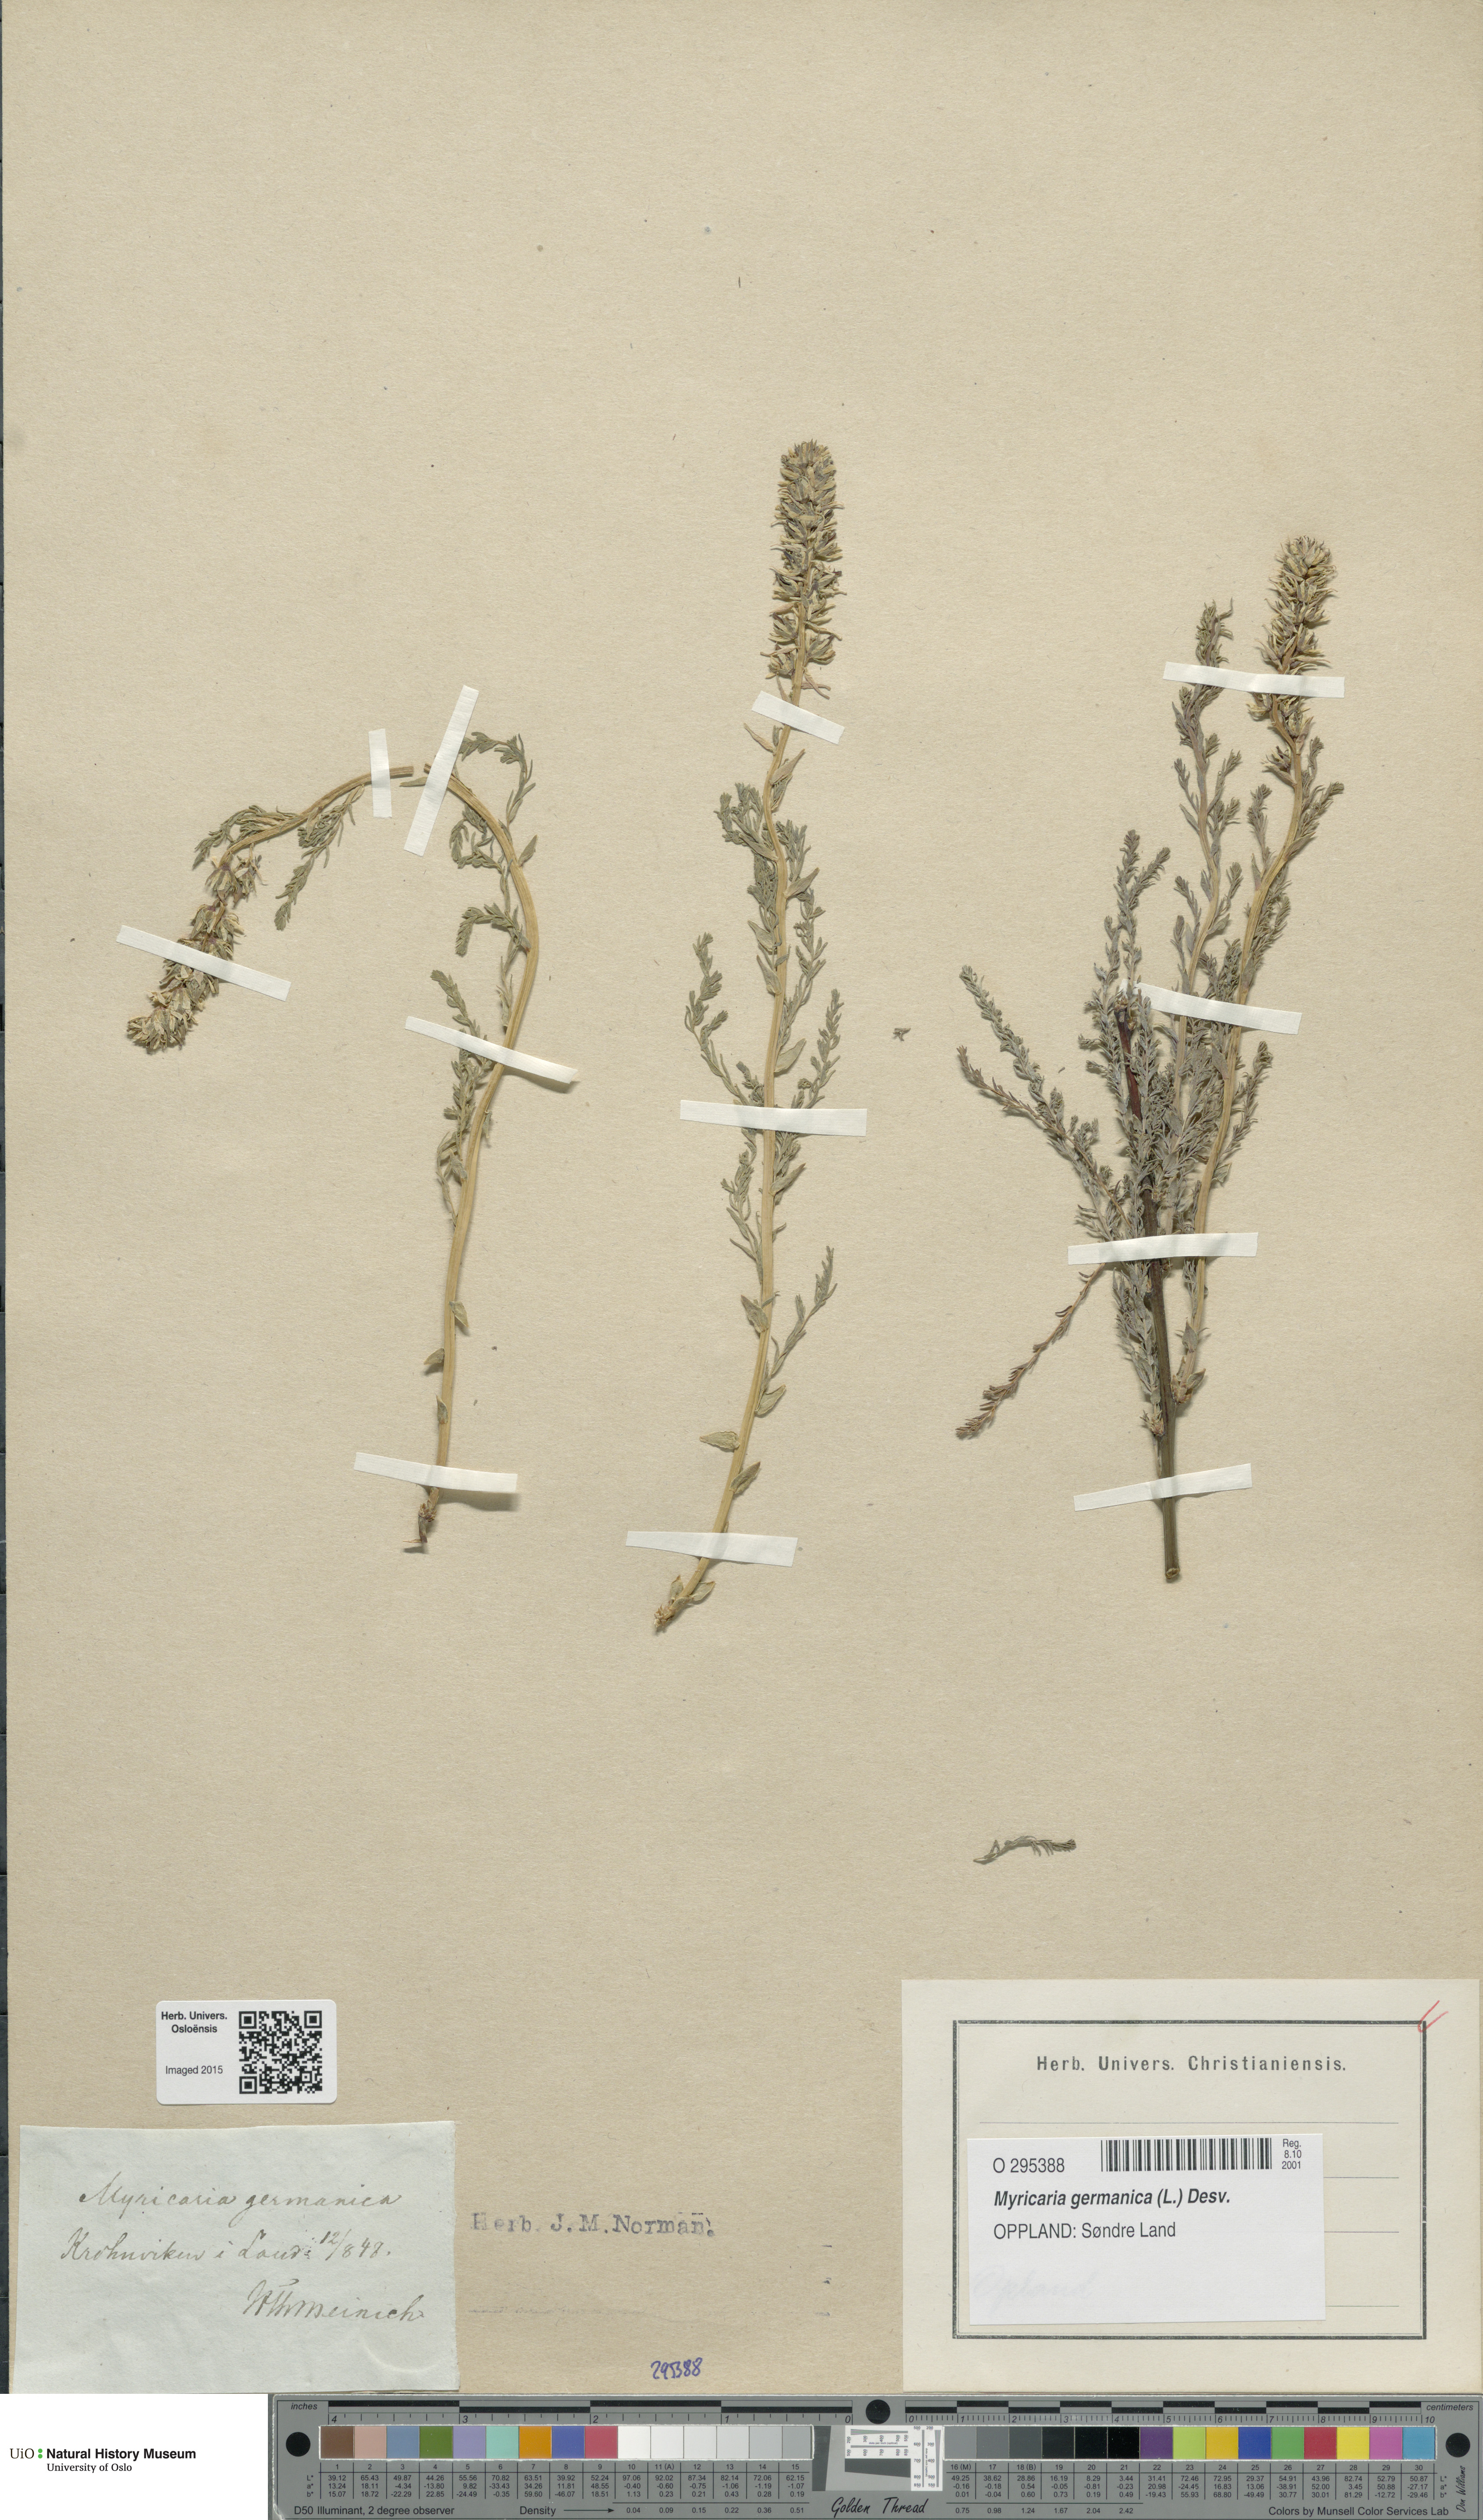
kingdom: Plantae
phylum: Tracheophyta
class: Magnoliopsida
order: Caryophyllales
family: Tamaricaceae
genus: Myricaria
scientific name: Myricaria germanica
